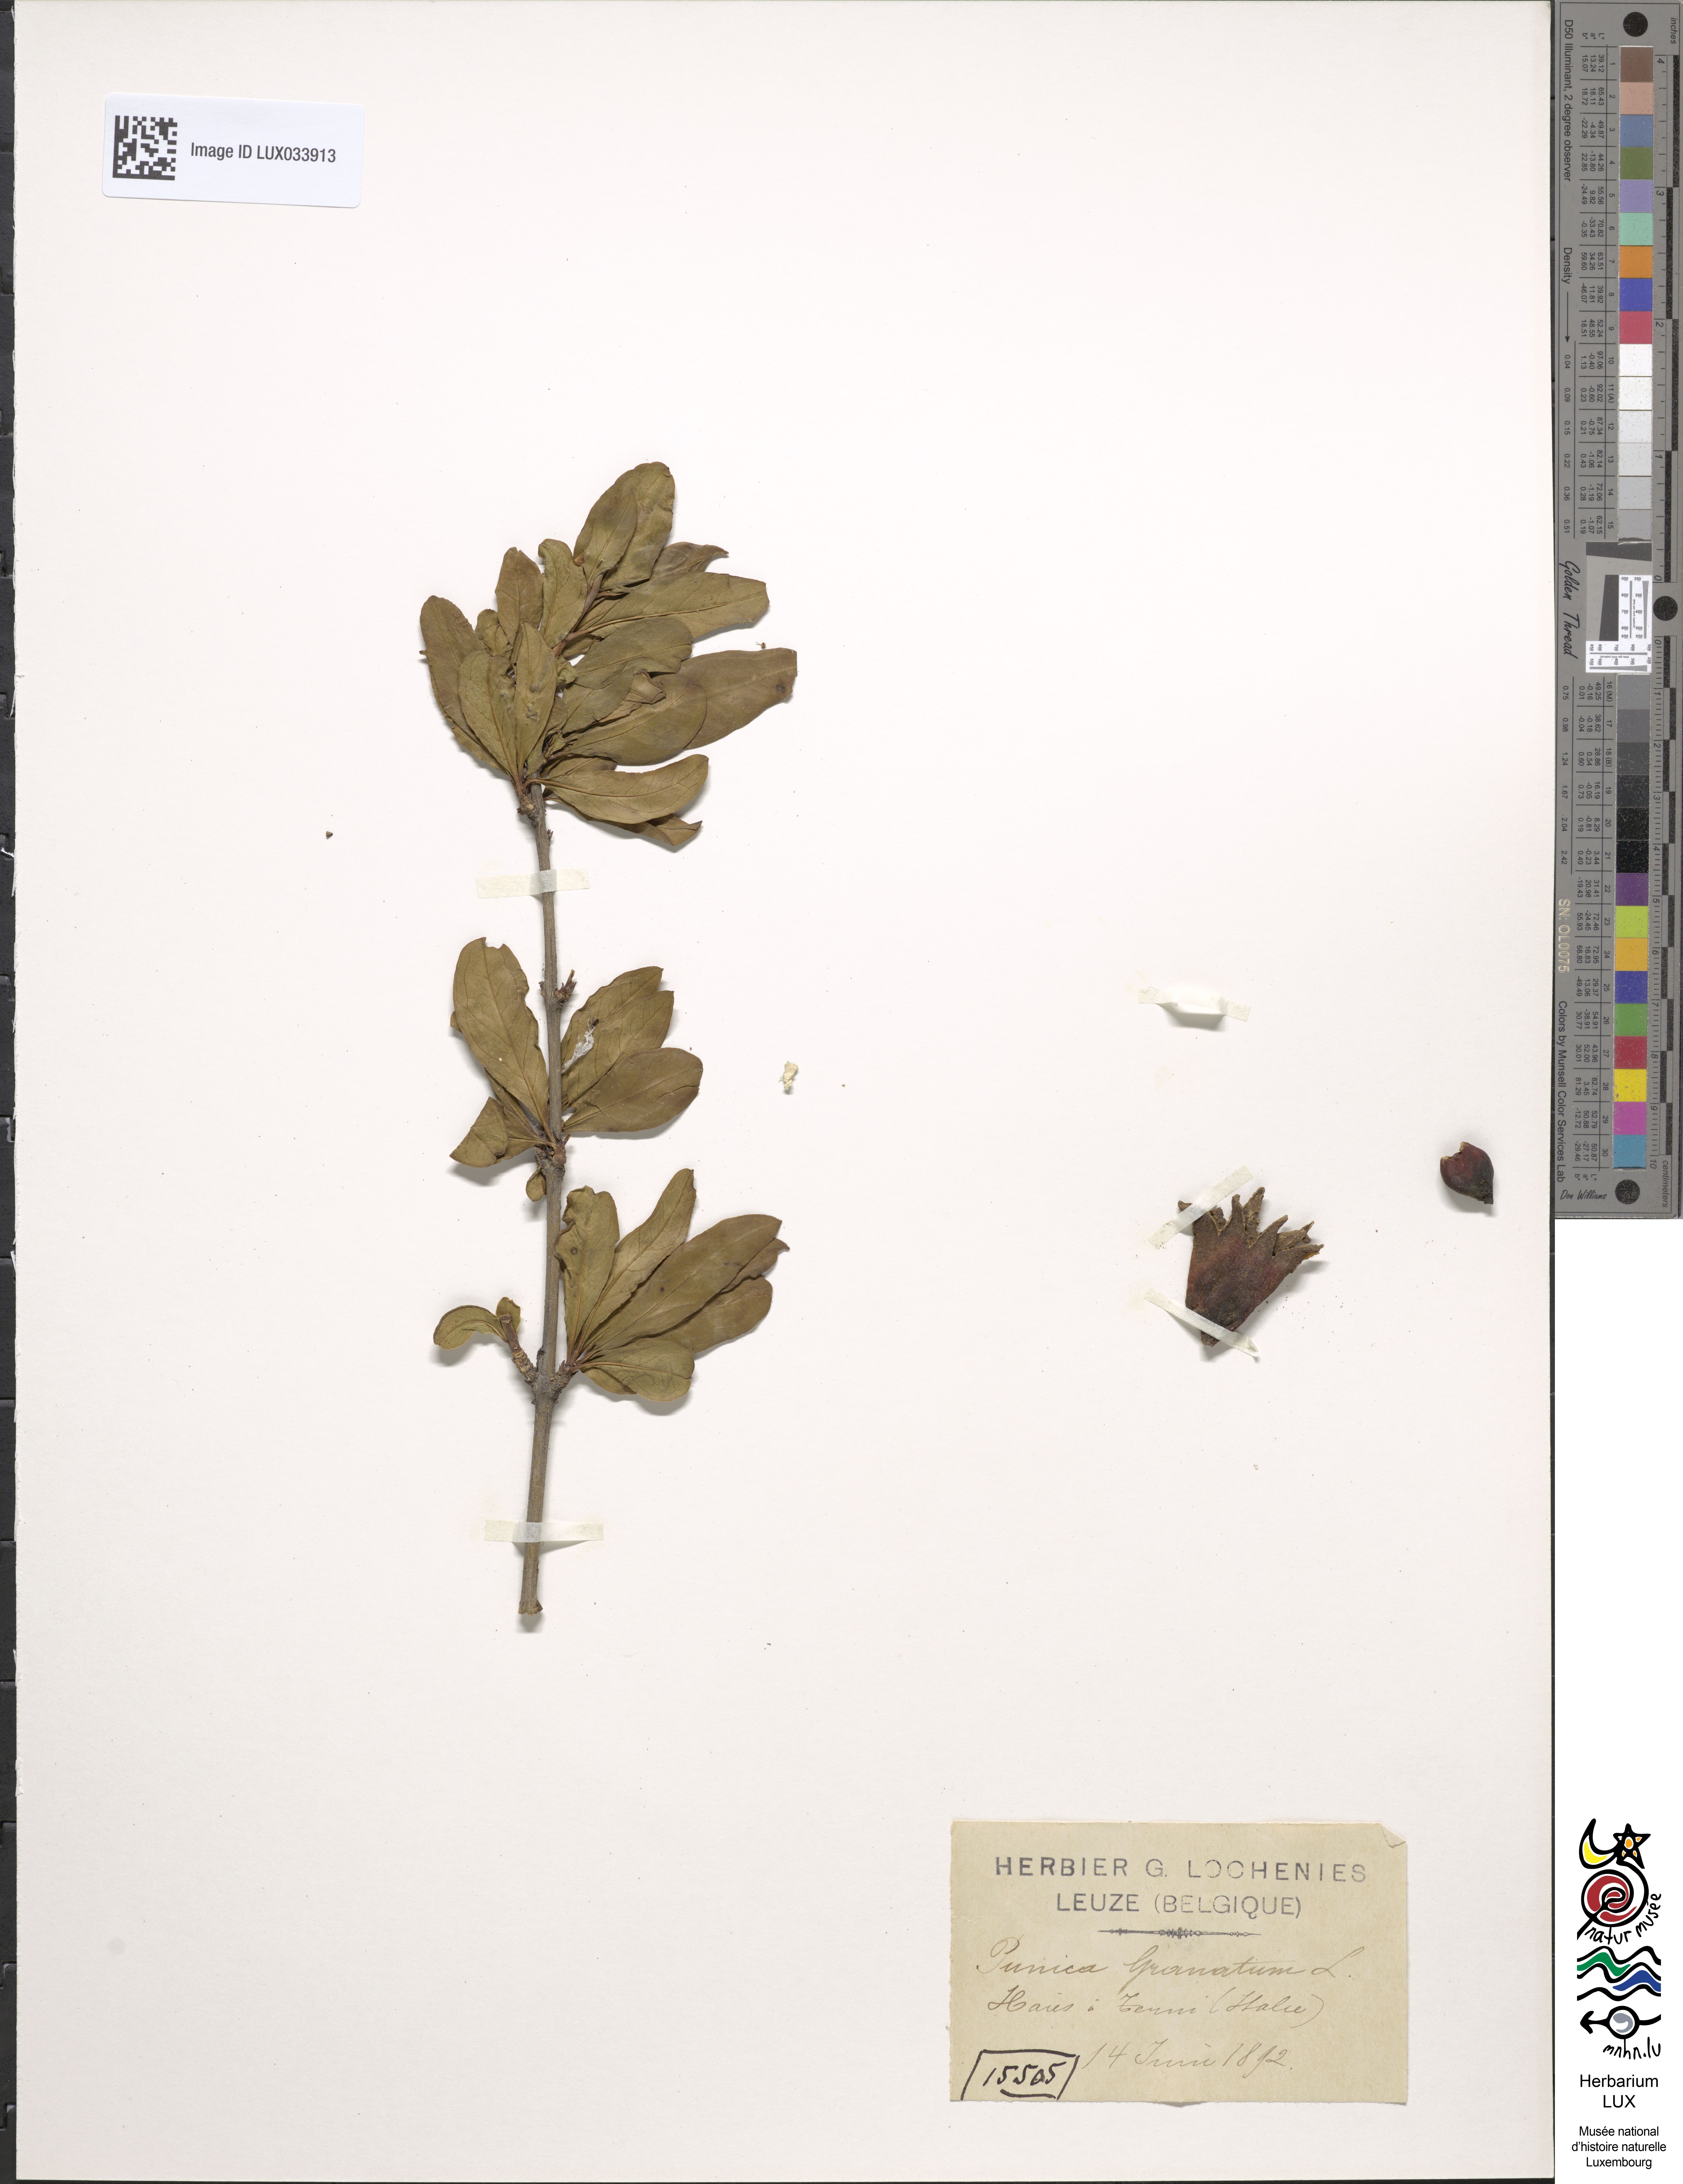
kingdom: Plantae
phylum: Tracheophyta
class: Magnoliopsida
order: Myrtales
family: Lythraceae
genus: Punica
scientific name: Punica granatum
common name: Pomegranate
